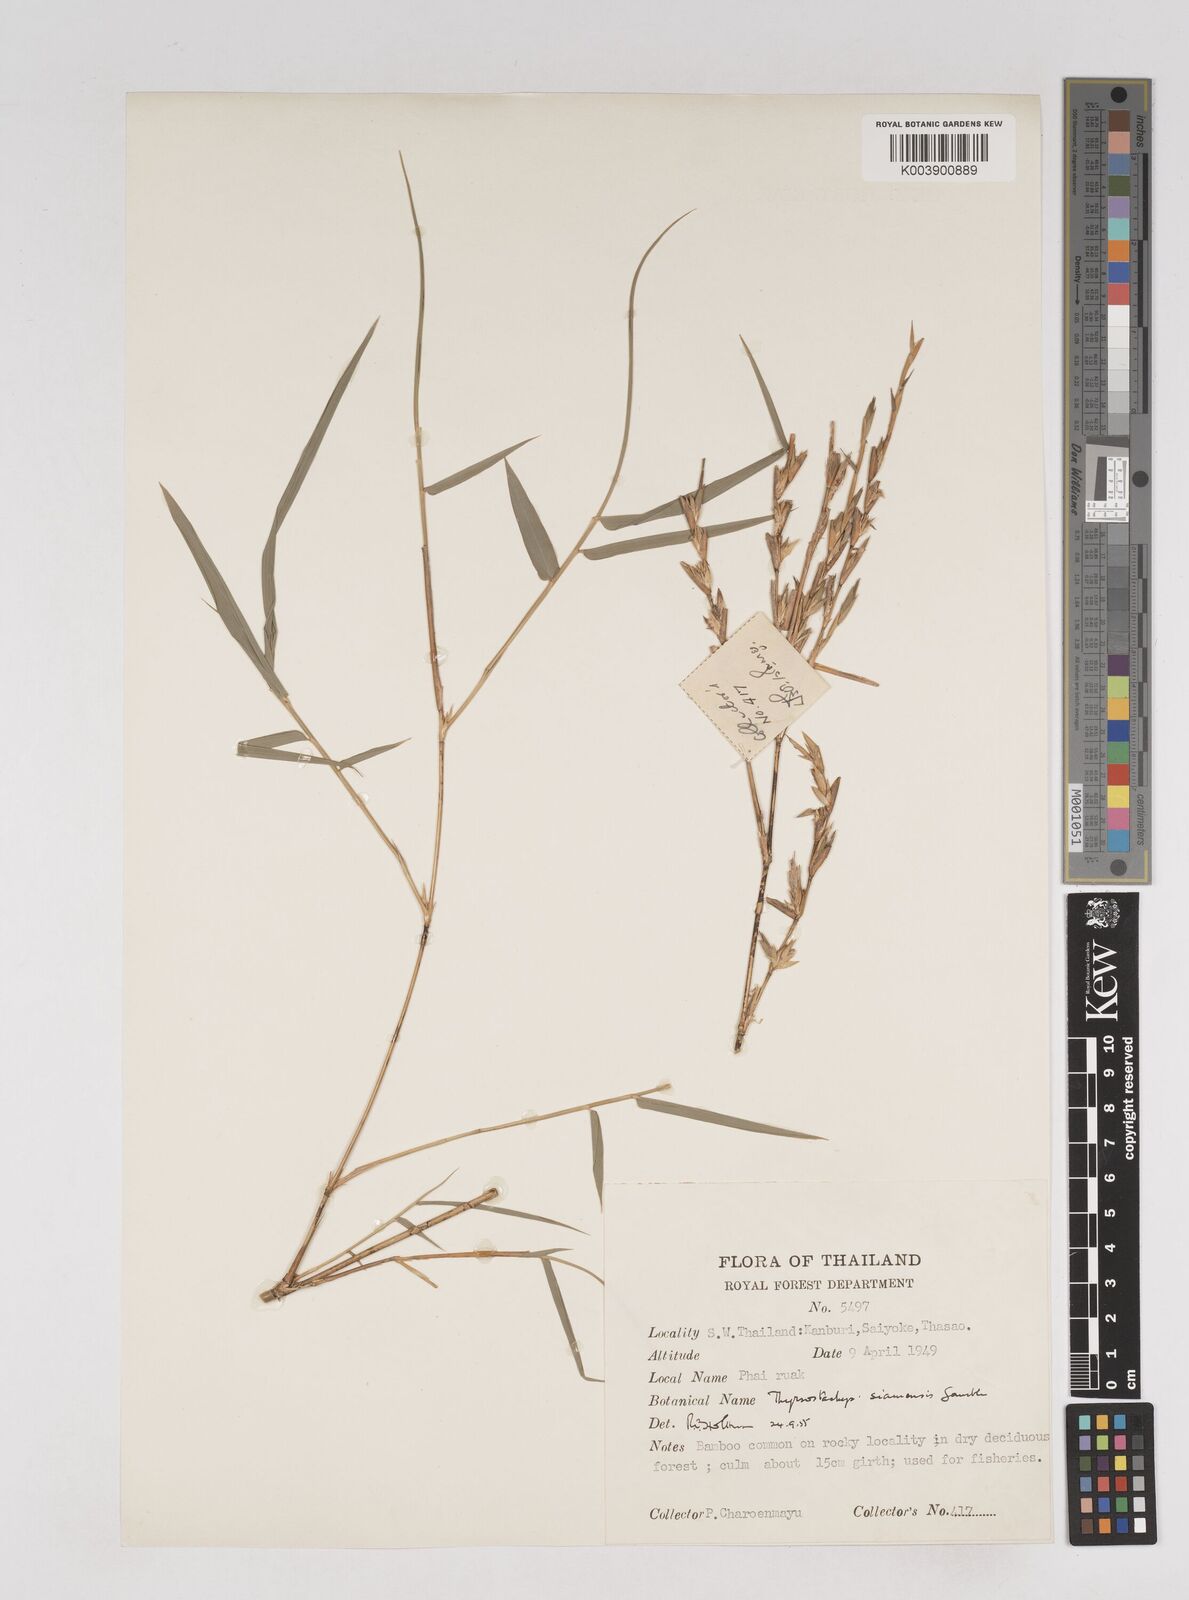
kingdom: Plantae
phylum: Tracheophyta
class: Liliopsida
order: Poales
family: Poaceae
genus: Thyrsostachys
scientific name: Thyrsostachys siamensis
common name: Thailand bamboo
